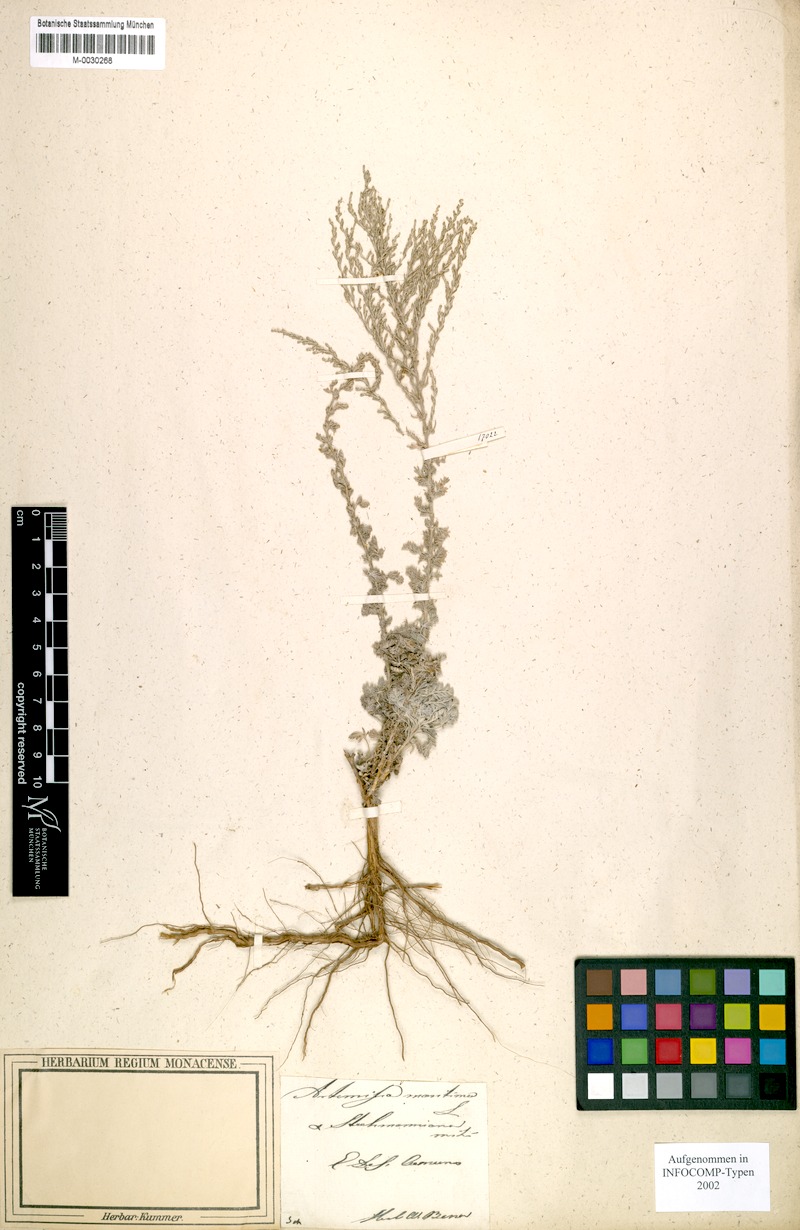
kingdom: Plantae
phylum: Tracheophyta
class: Magnoliopsida
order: Asterales
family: Asteraceae
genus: Artemisia
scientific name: Artemisia stechmanniana
